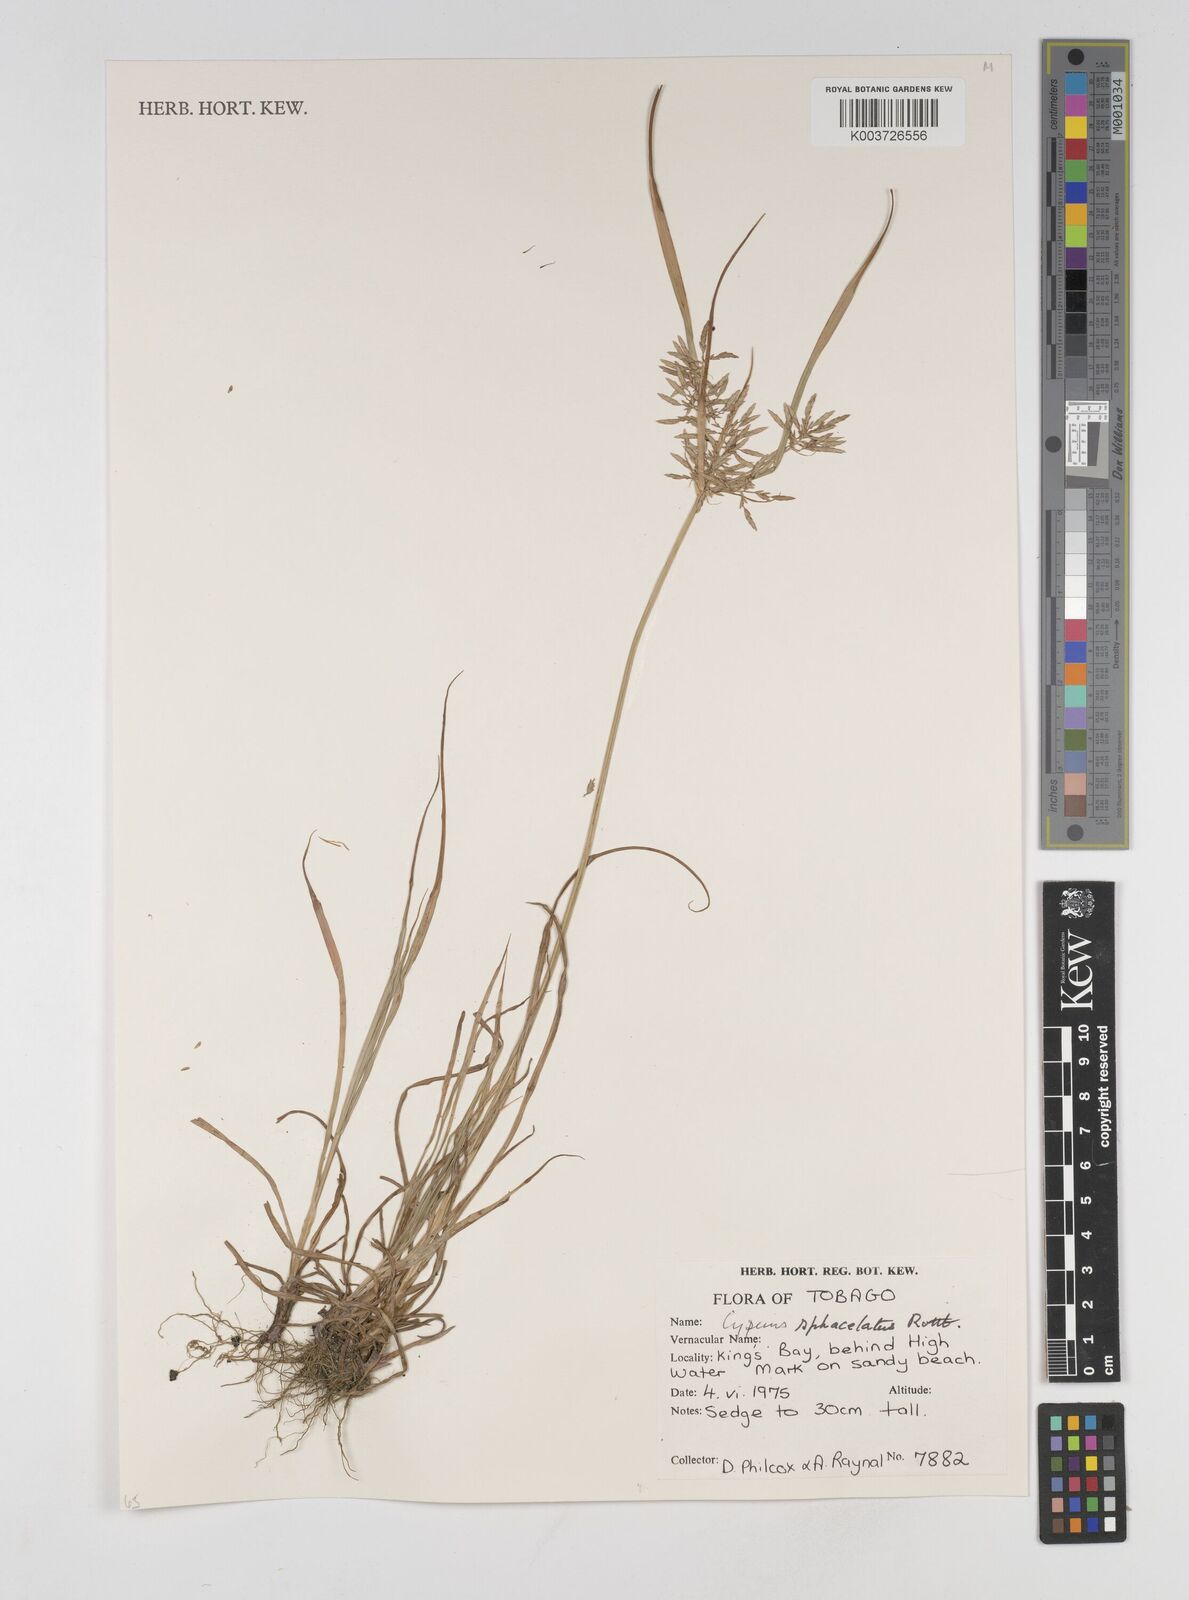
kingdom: Plantae
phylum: Tracheophyta
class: Liliopsida
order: Poales
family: Cyperaceae
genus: Cyperus
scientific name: Cyperus sphacelatus
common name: Roadside flatsedge
